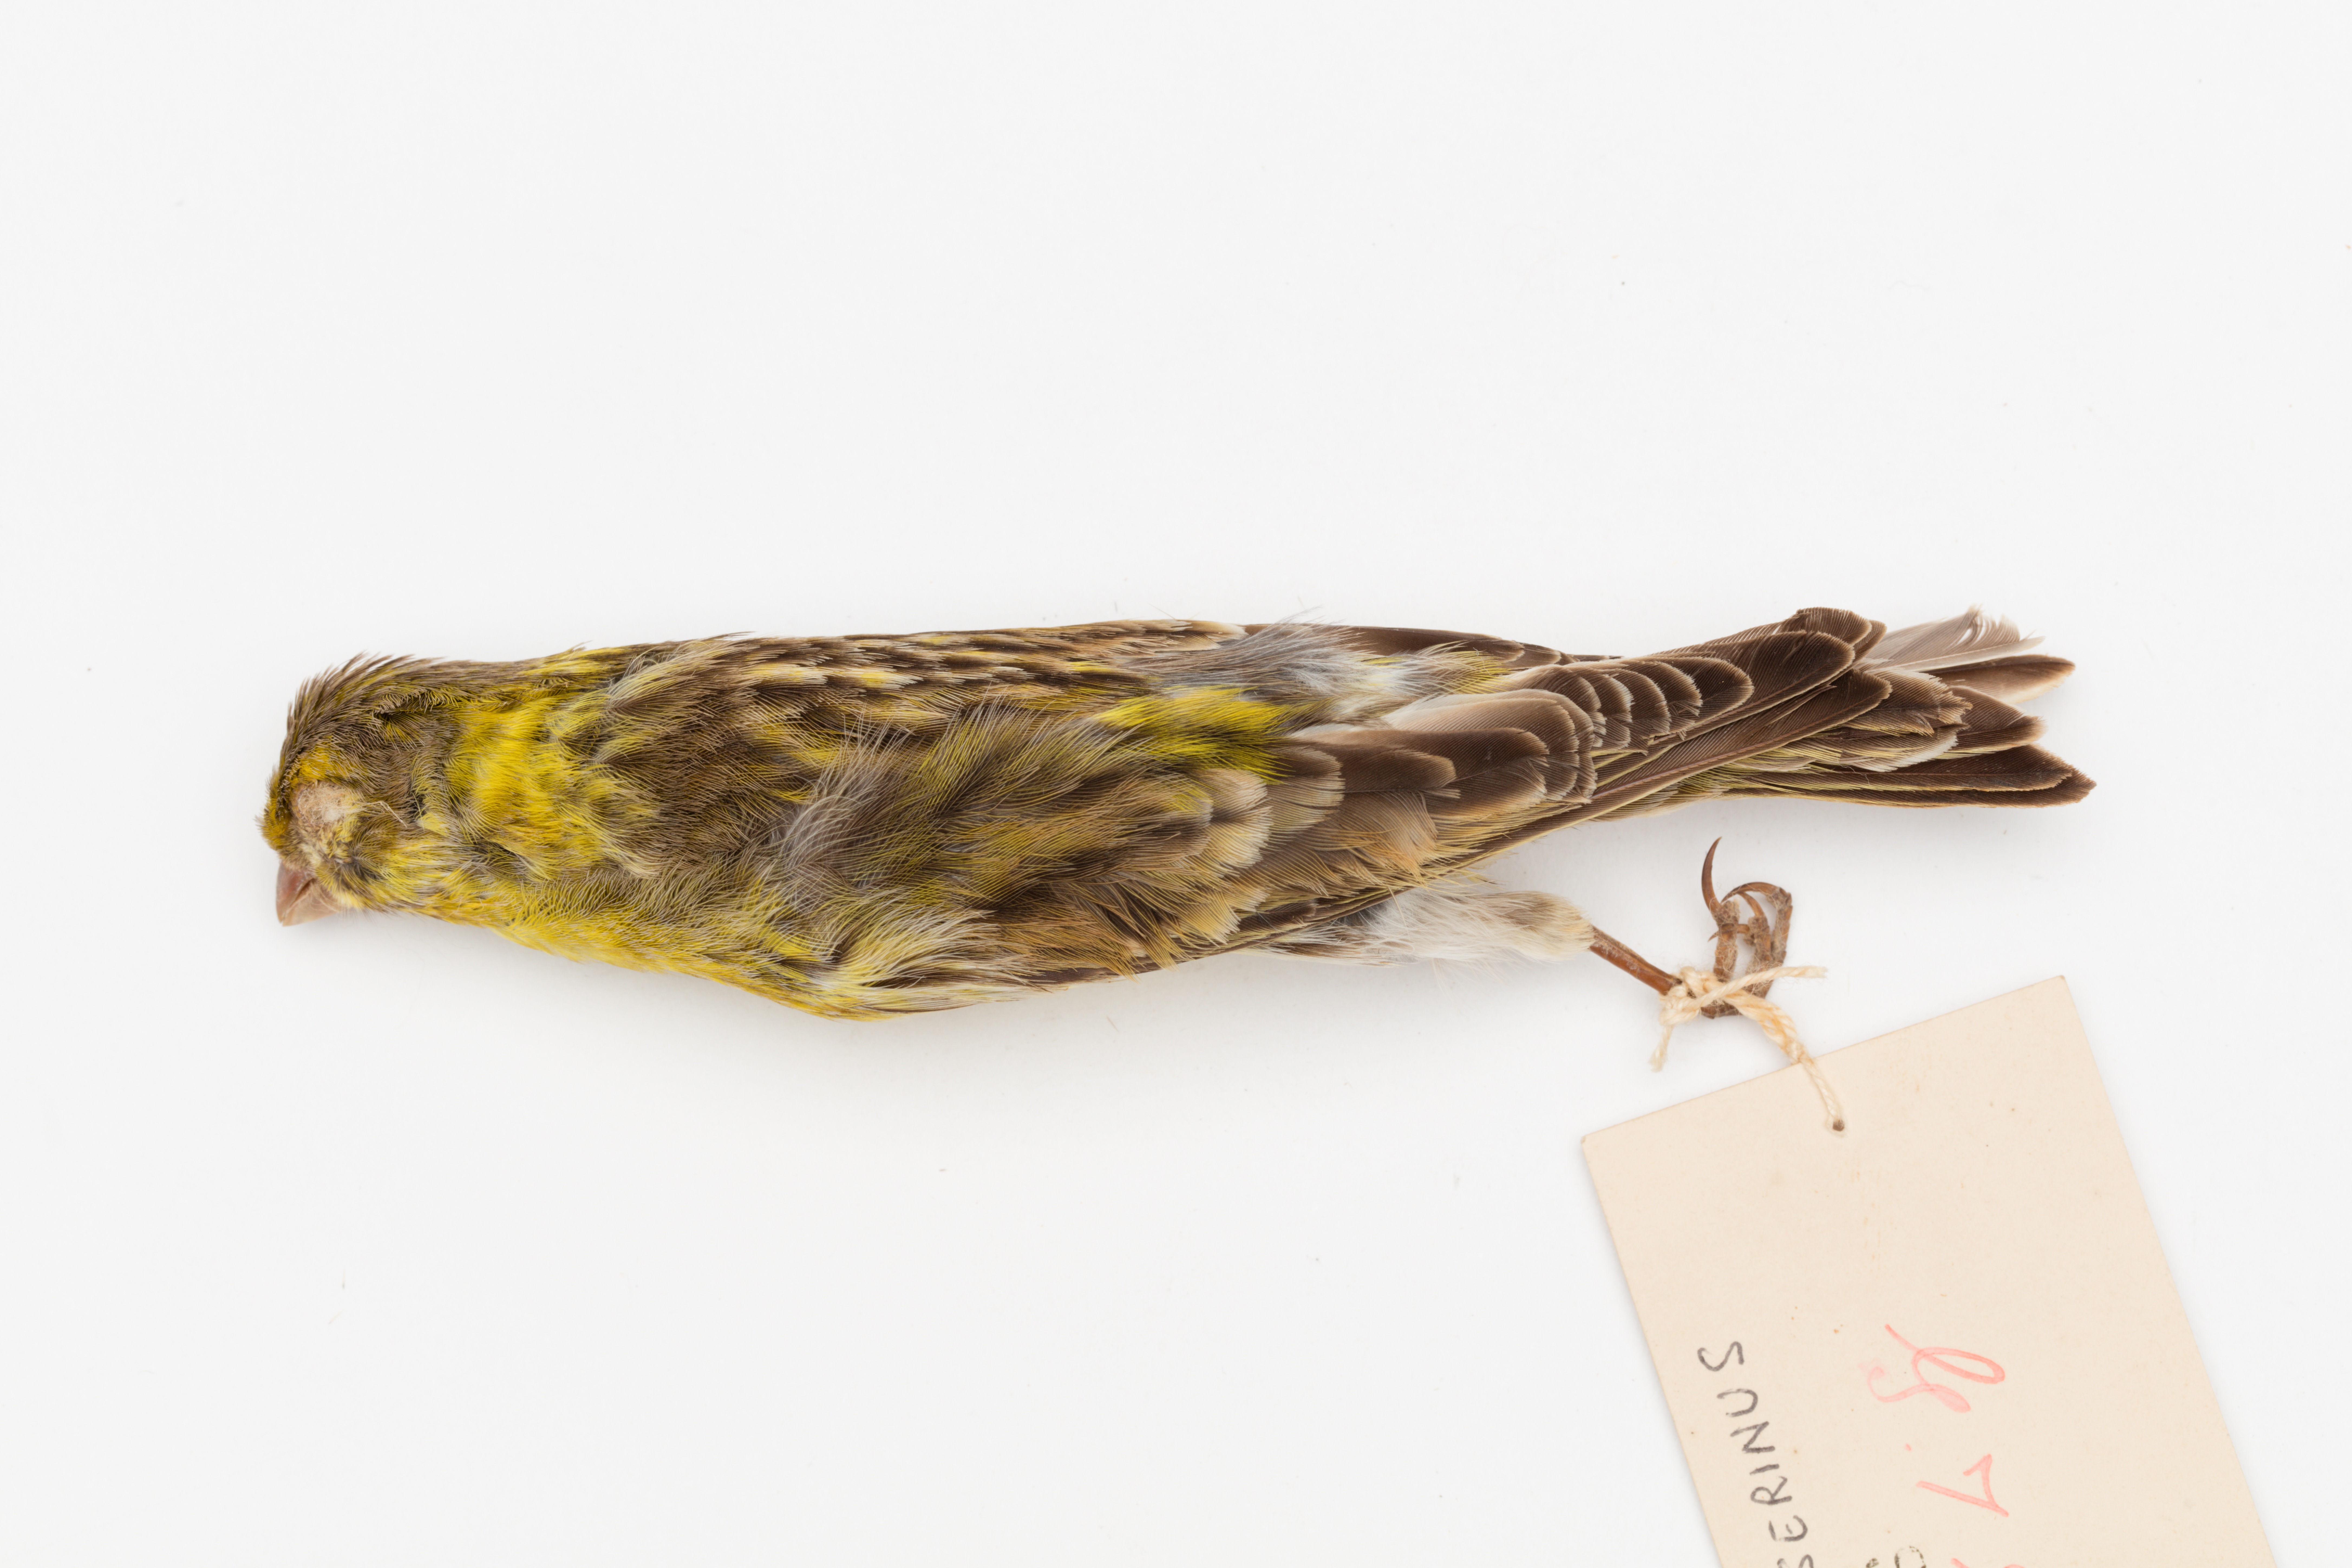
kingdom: Animalia
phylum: Chordata
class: Aves
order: Passeriformes
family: Fringillidae
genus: Serinus
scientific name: Serinus serinus
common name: European serin
